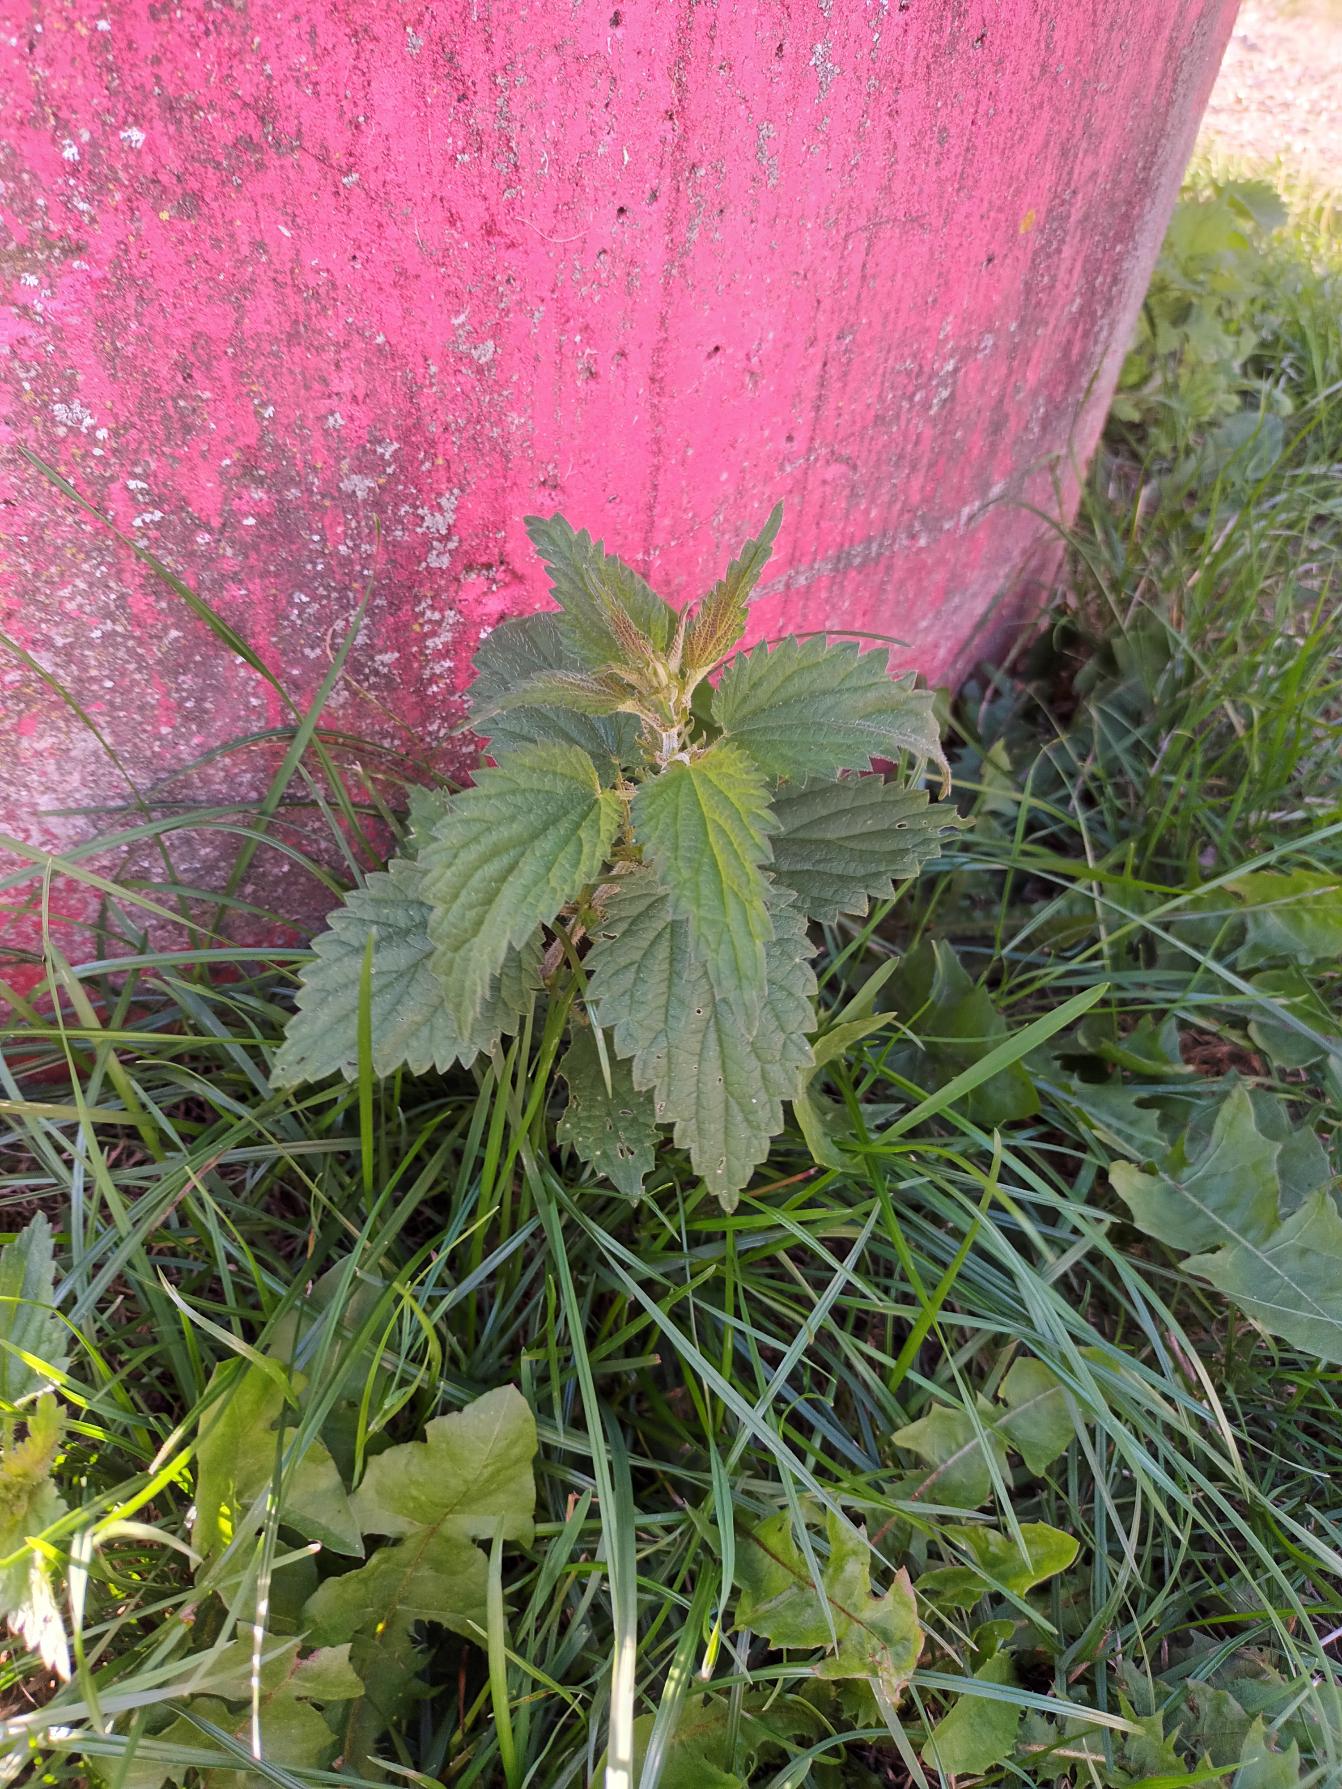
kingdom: Plantae
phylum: Tracheophyta
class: Magnoliopsida
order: Rosales
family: Urticaceae
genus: Urtica
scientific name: Urtica dioica
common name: Stor nælde
